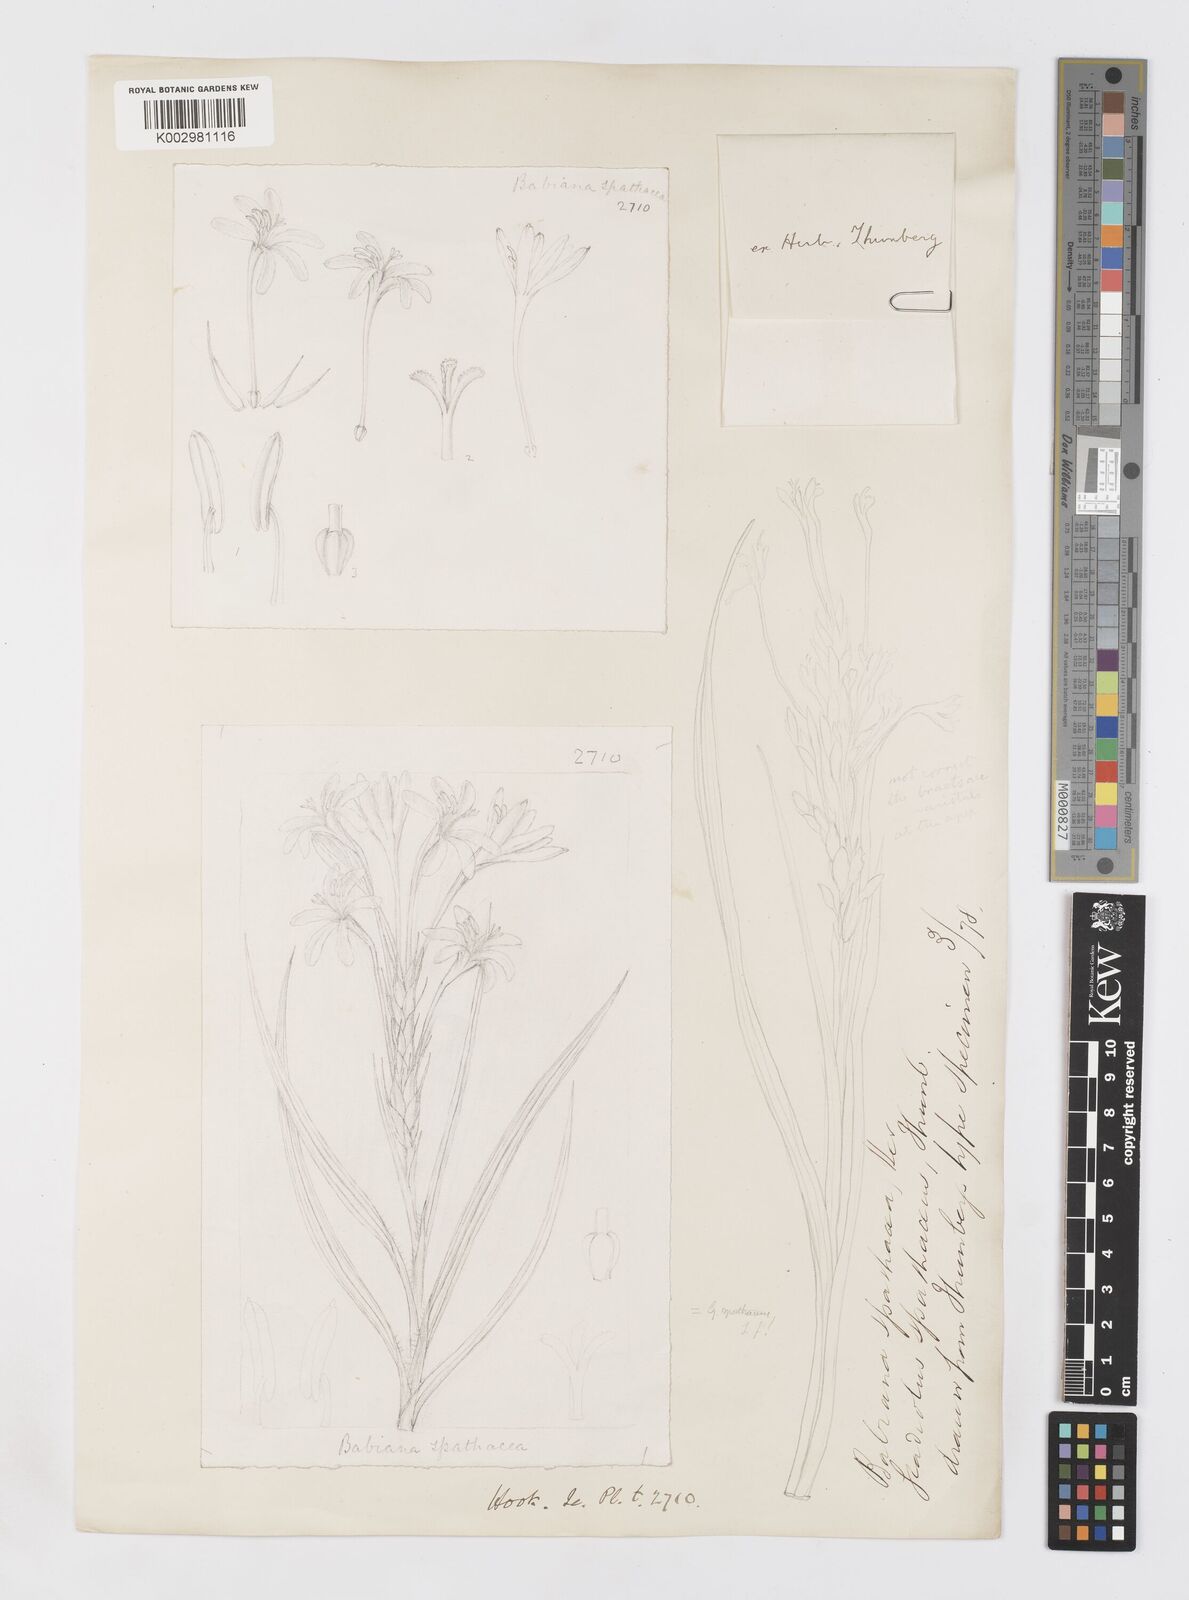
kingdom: Plantae
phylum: Tracheophyta
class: Liliopsida
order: Asparagales
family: Iridaceae
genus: Babiana
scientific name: Babiana spathacea
